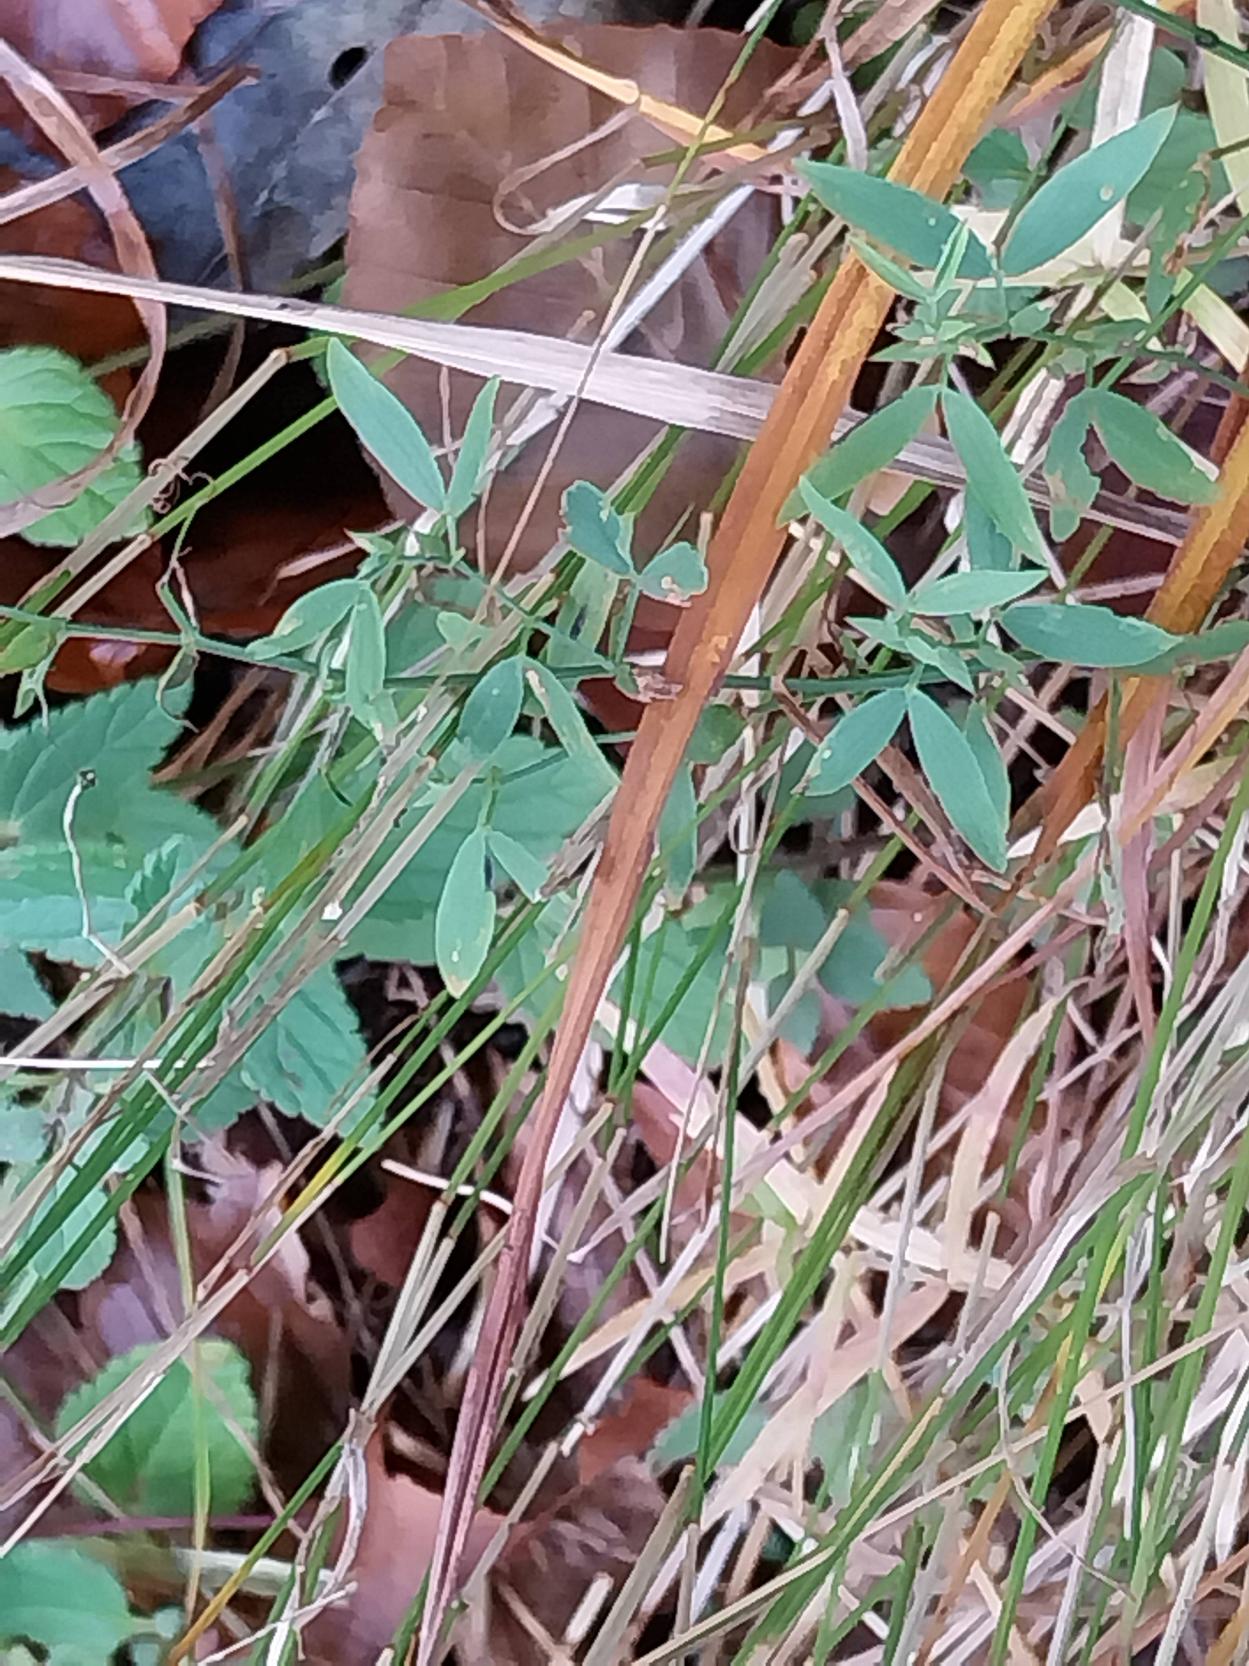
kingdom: Plantae
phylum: Tracheophyta
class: Magnoliopsida
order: Fabales
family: Fabaceae
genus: Lathyrus
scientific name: Lathyrus pratensis
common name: Gul fladbælg
